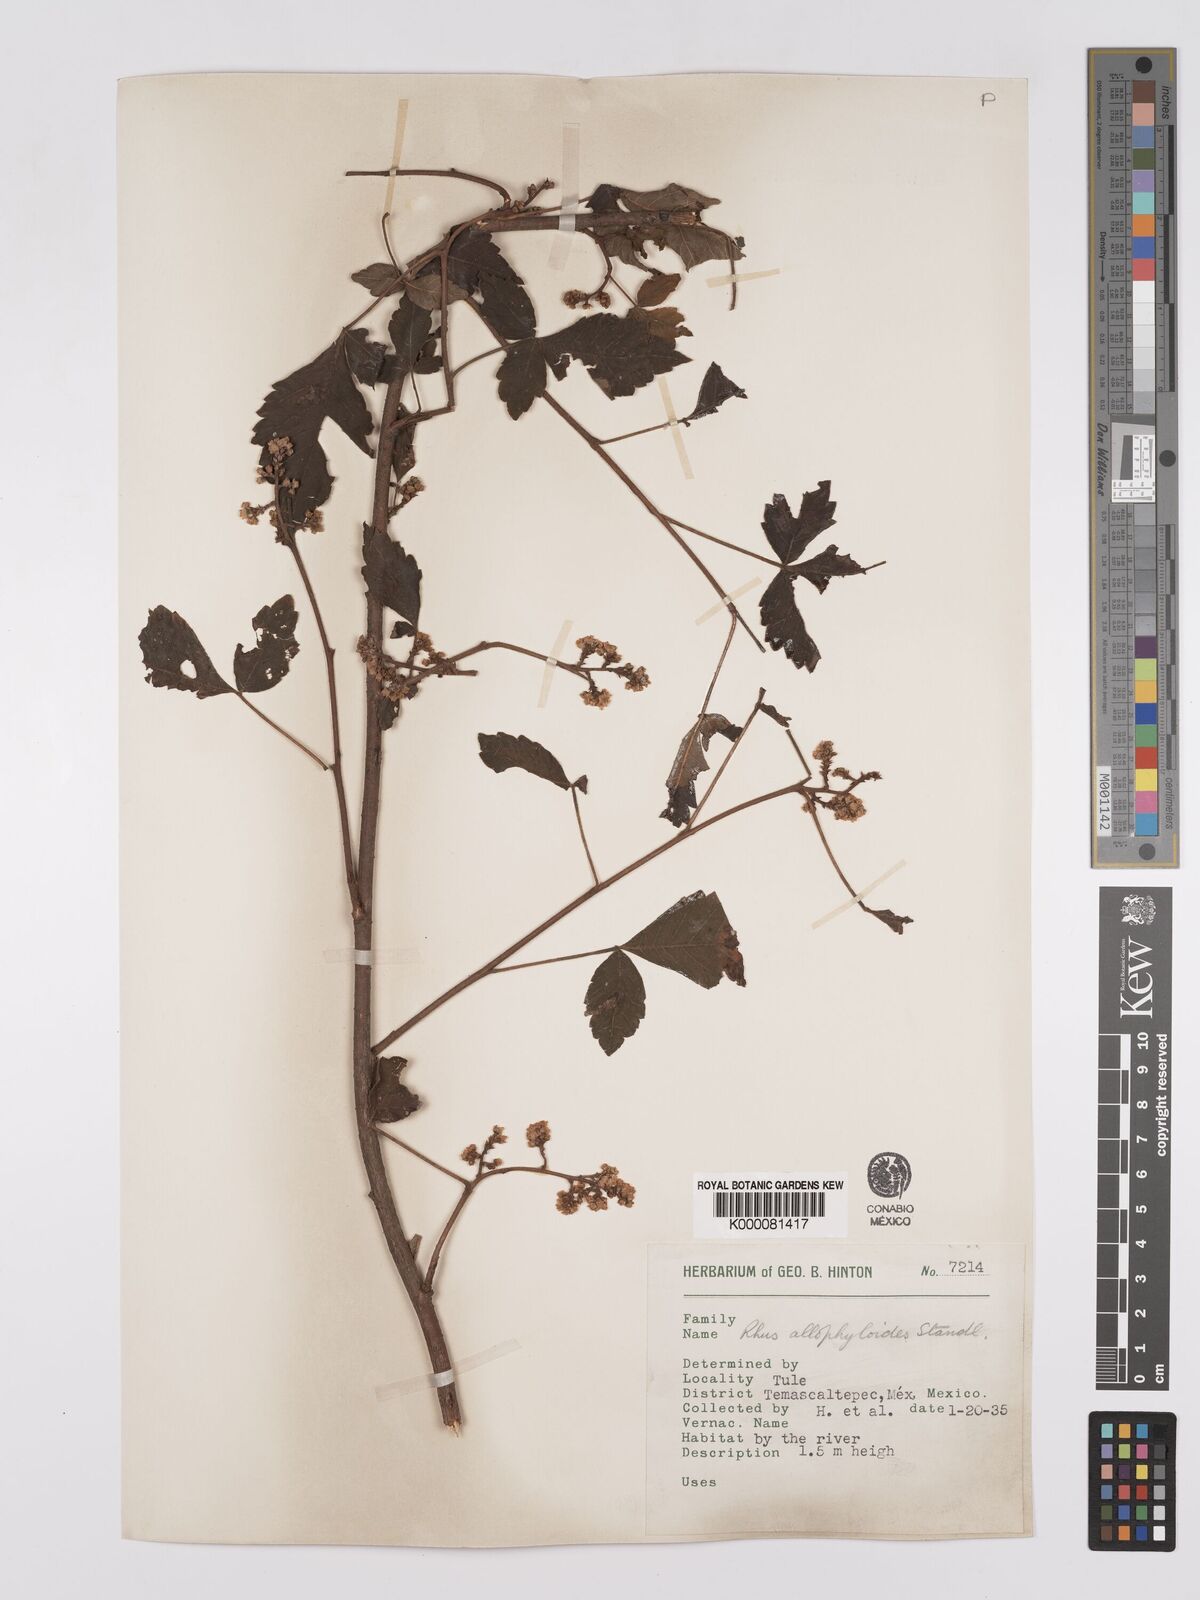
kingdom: Plantae
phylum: Tracheophyta
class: Magnoliopsida
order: Sapindales
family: Anacardiaceae
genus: Rhus
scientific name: Rhus allophyloides
